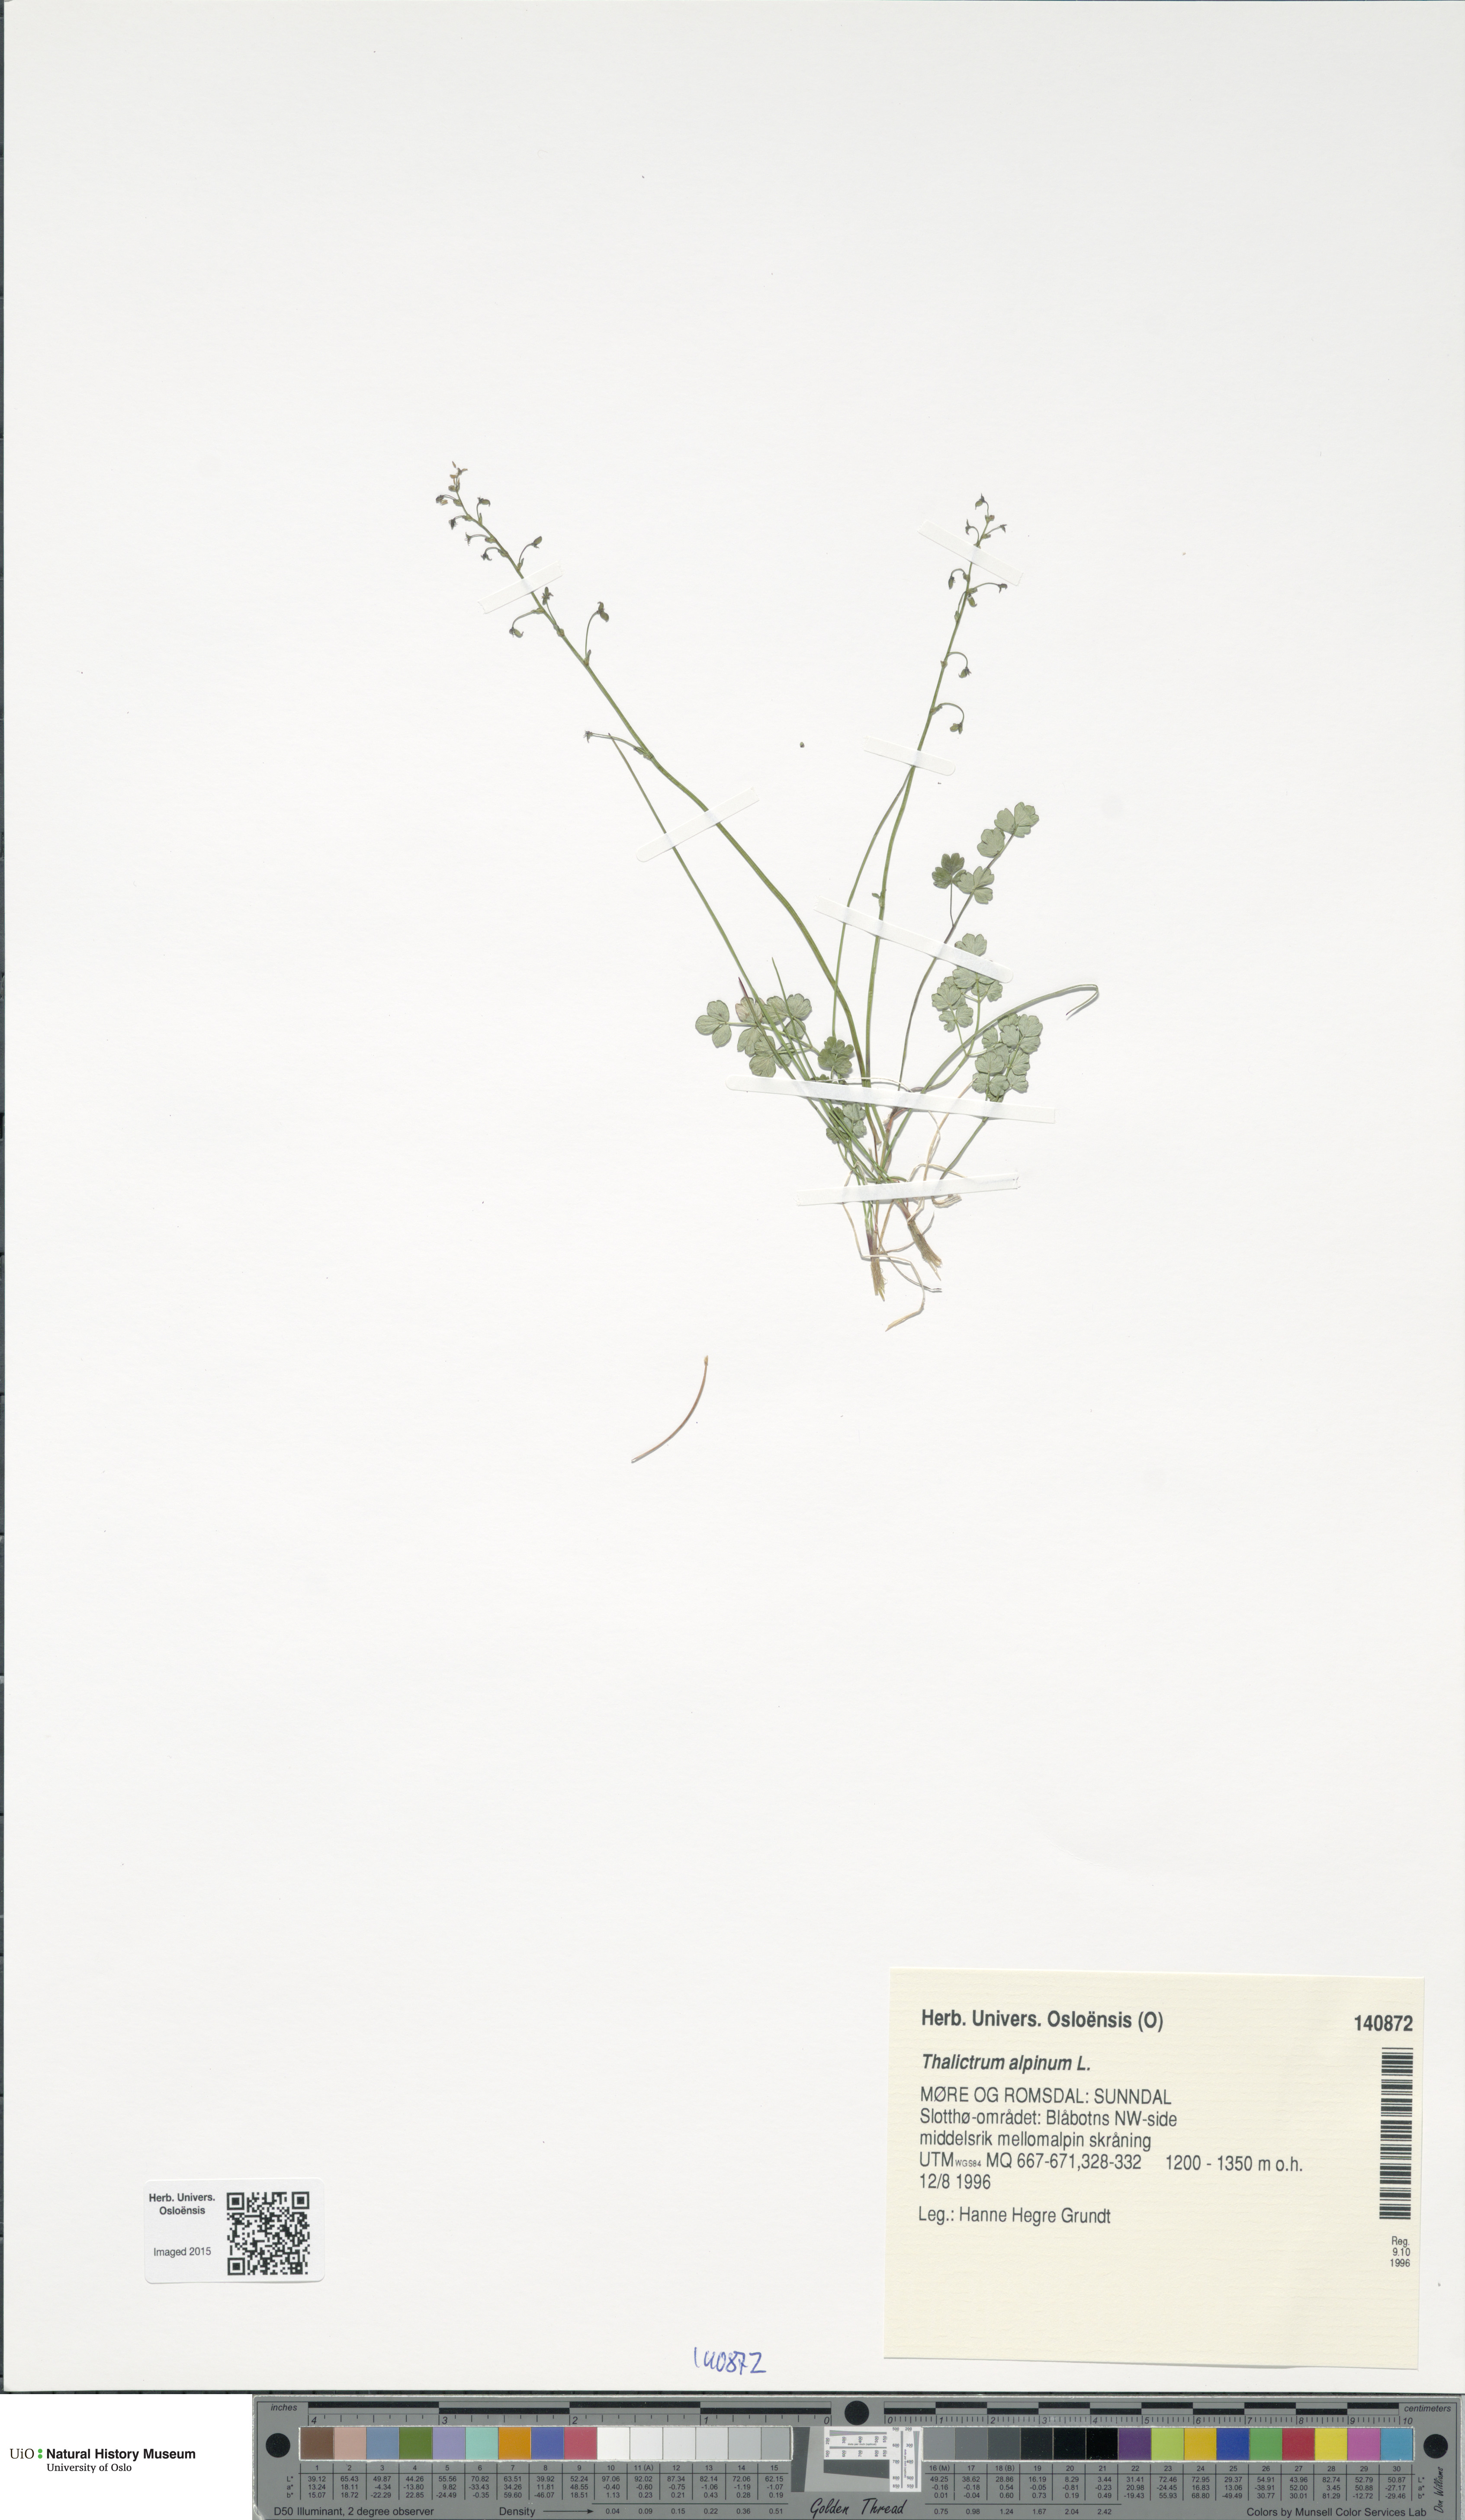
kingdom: Plantae
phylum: Tracheophyta
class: Magnoliopsida
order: Ranunculales
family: Ranunculaceae
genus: Thalictrum
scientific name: Thalictrum alpinum
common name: Alpine meadow-rue
